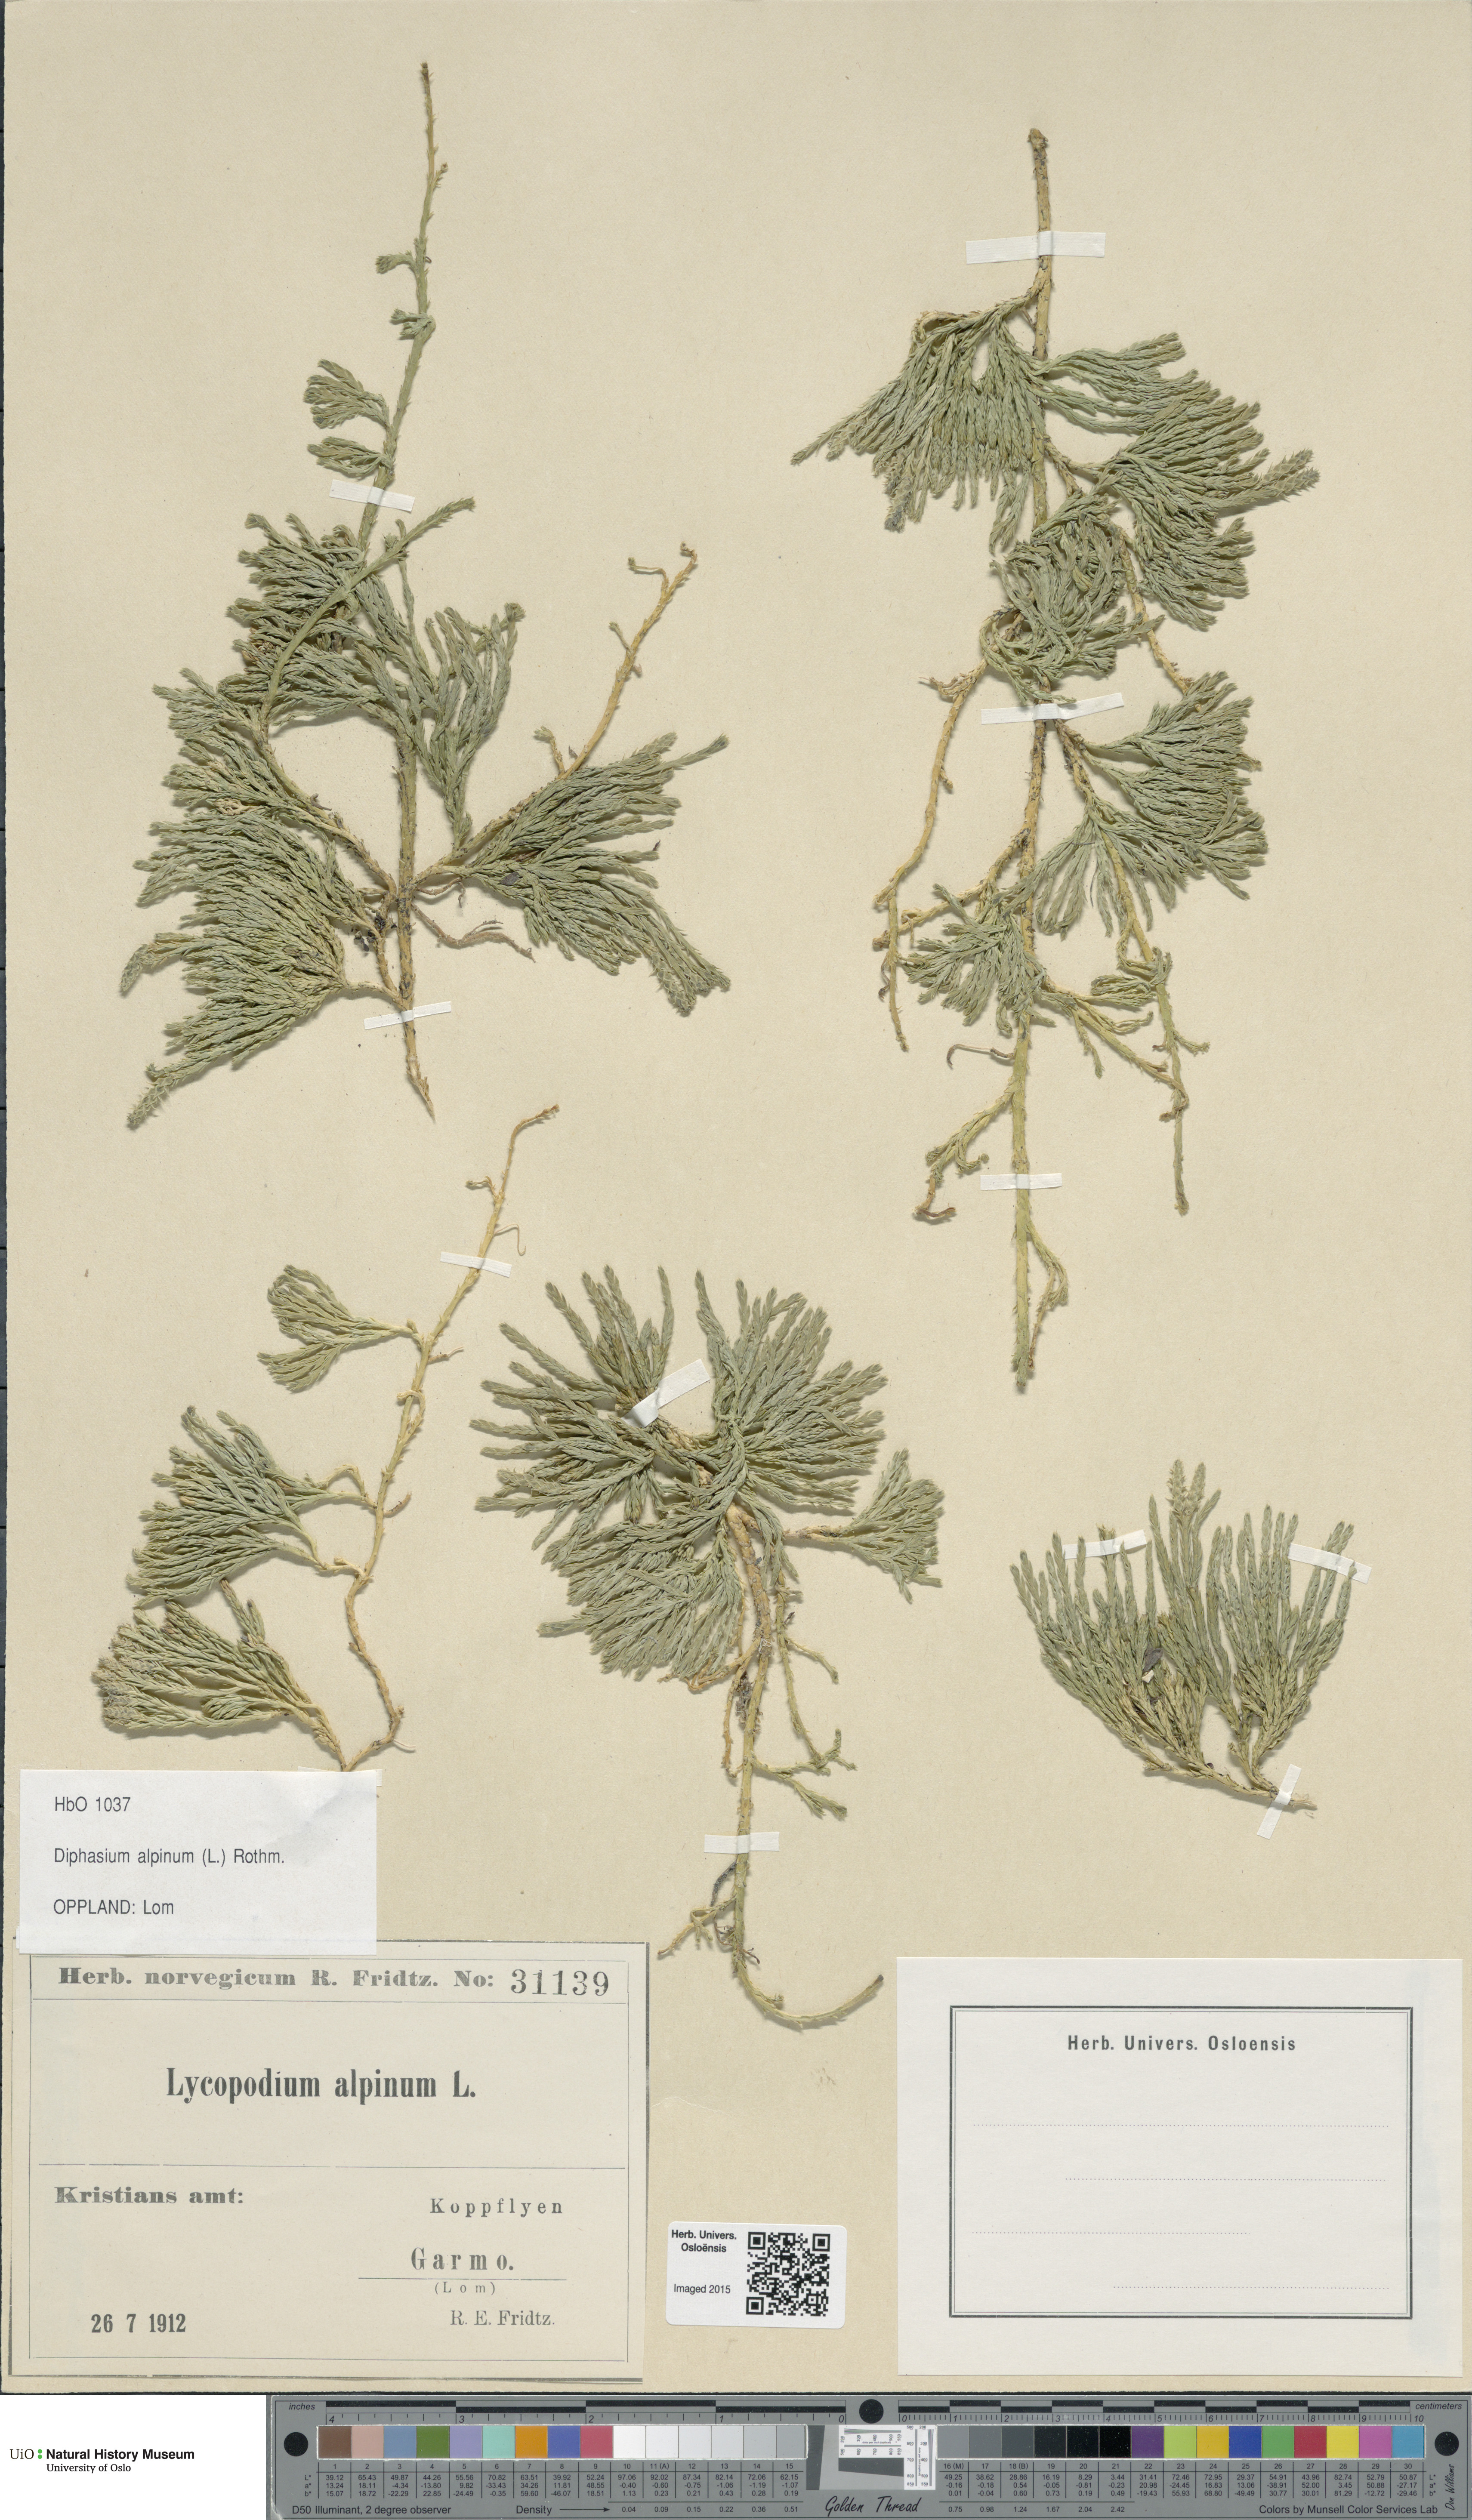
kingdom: Plantae
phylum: Tracheophyta
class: Lycopodiopsida
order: Lycopodiales
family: Lycopodiaceae
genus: Diphasiastrum
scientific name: Diphasiastrum alpinum
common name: Alpine clubmoss
